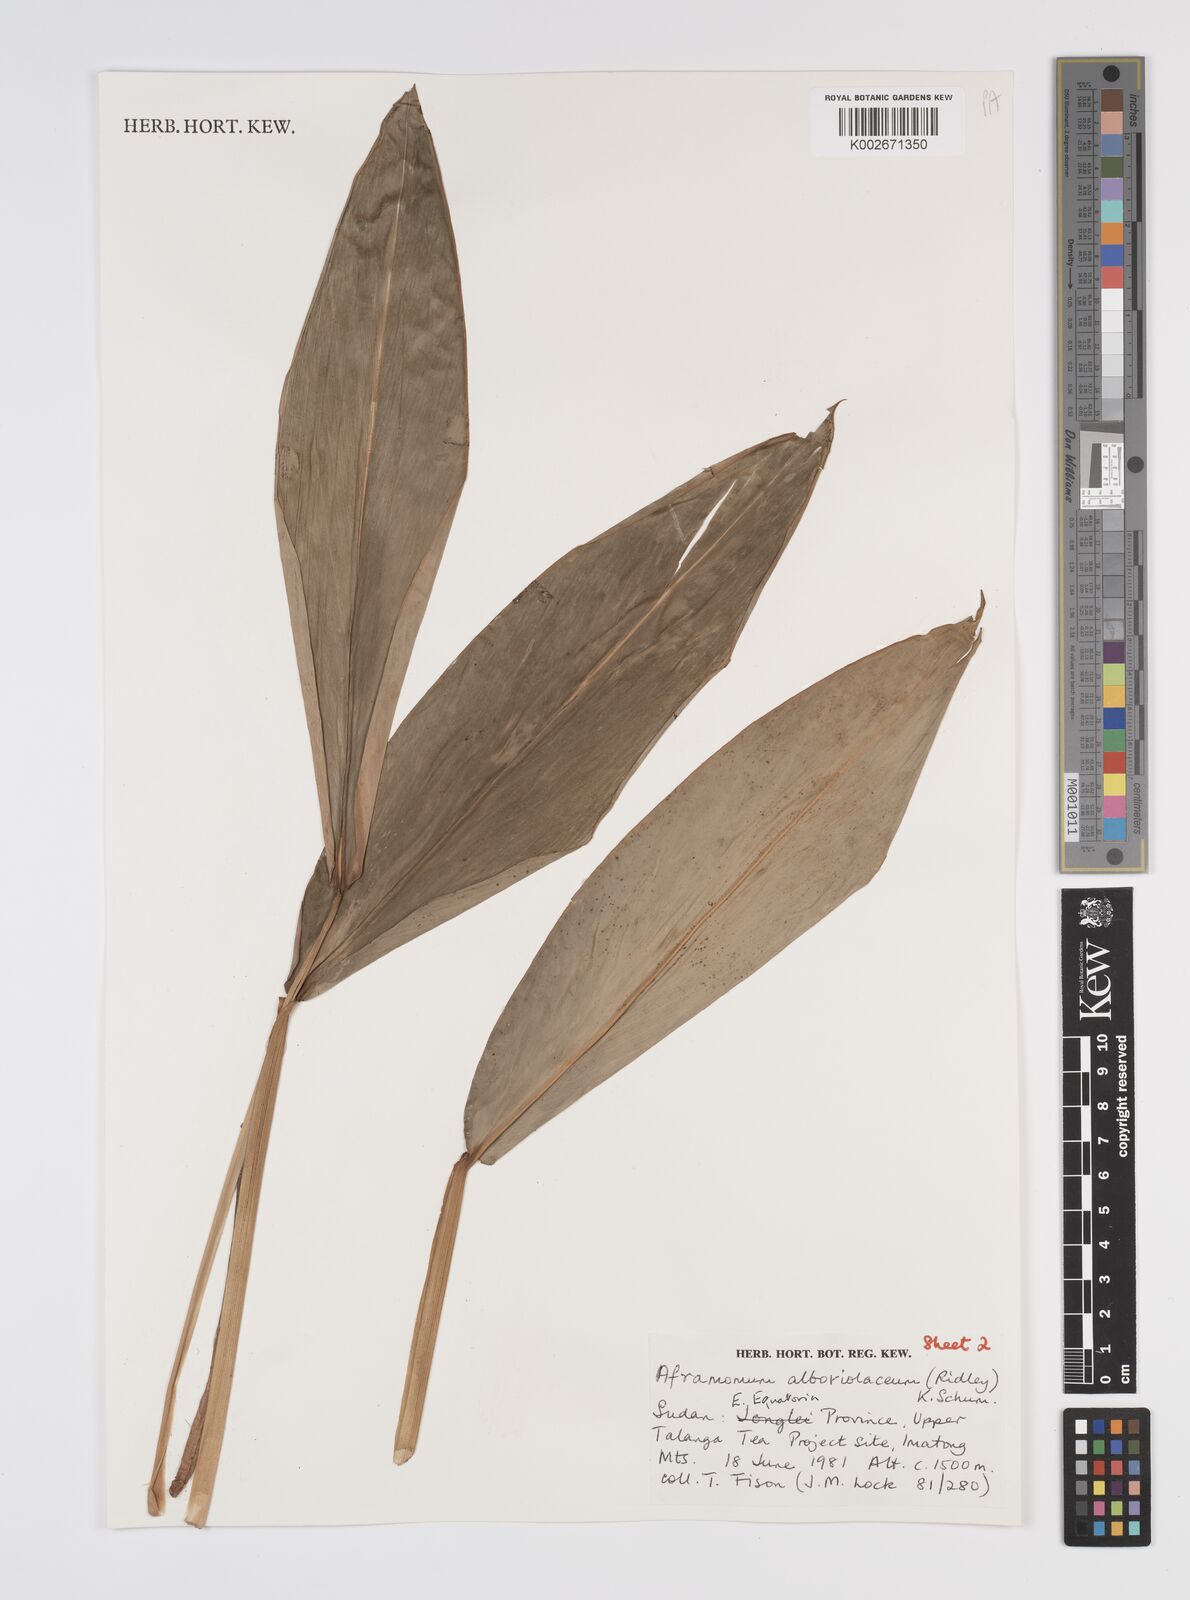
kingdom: Plantae
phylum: Tracheophyta
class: Liliopsida
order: Zingiberales
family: Zingiberaceae
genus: Aframomum
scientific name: Aframomum alboviolaceum
